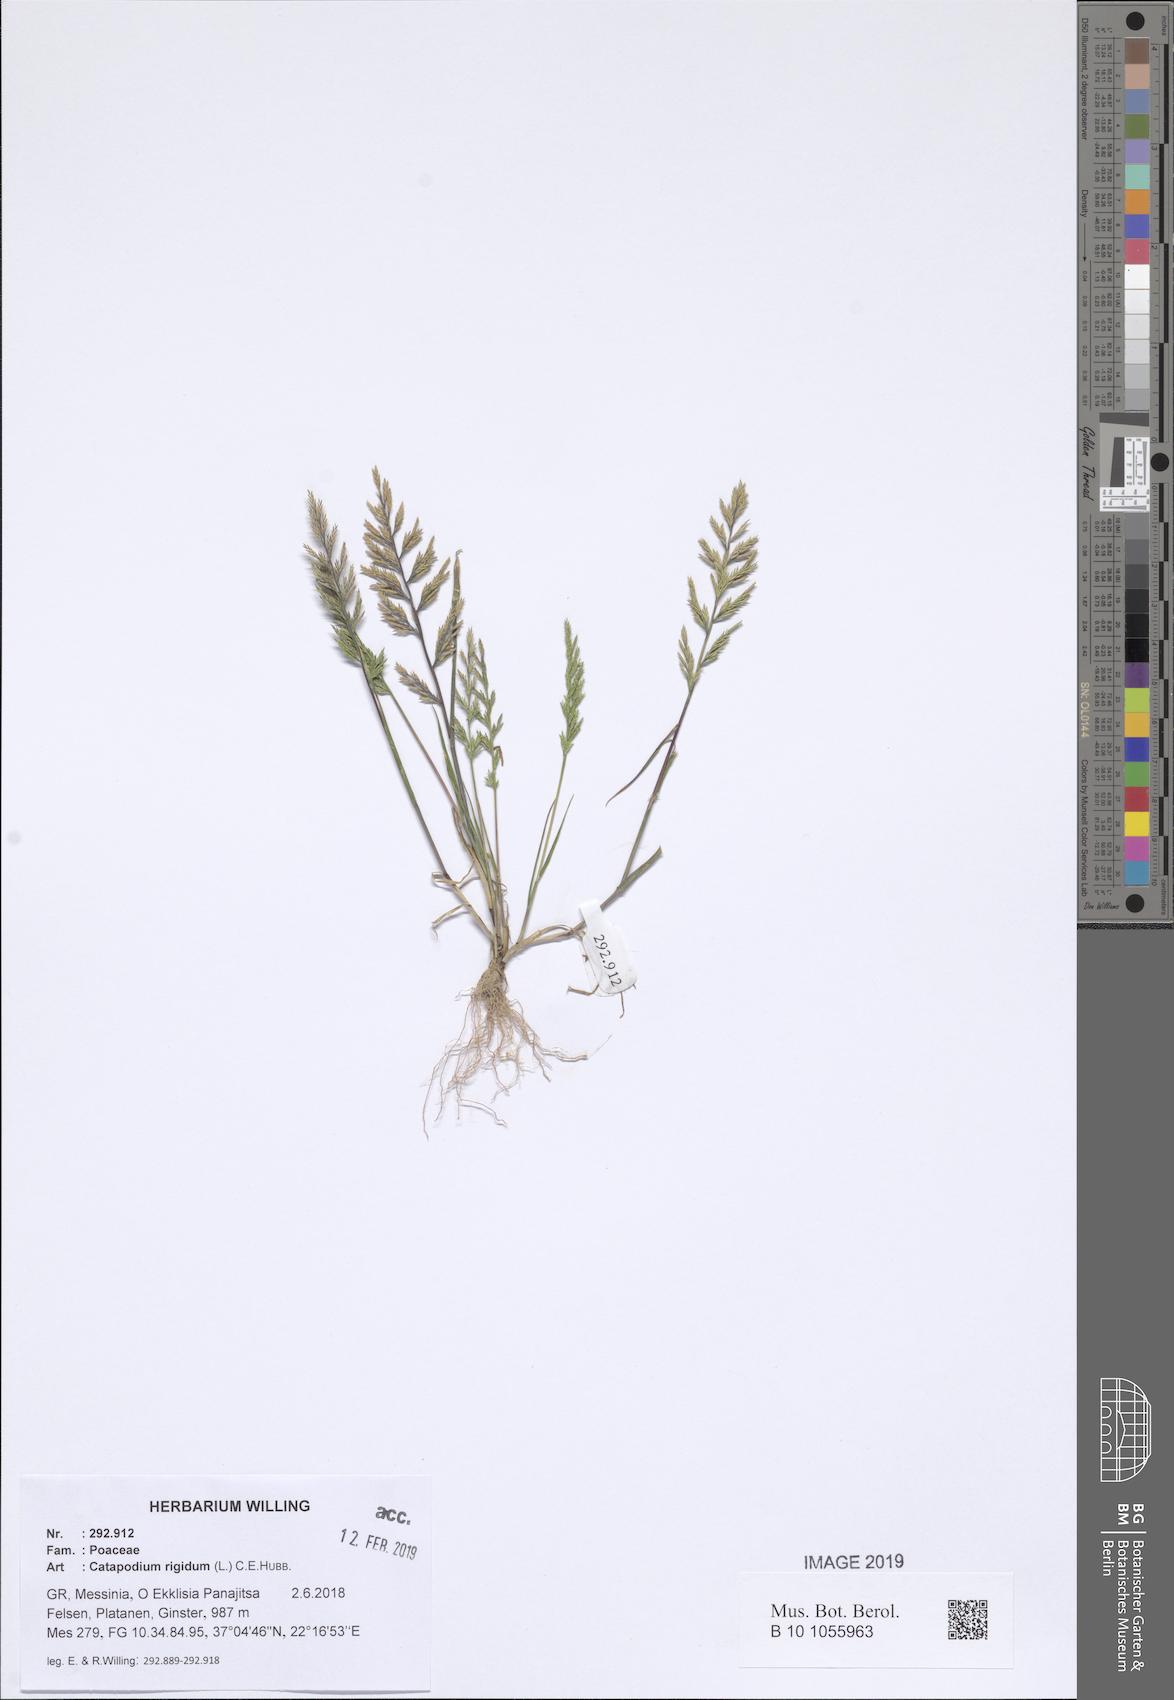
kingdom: Plantae
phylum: Tracheophyta
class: Liliopsida
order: Poales
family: Poaceae
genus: Catapodium
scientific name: Catapodium rigidum
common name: Fern-grass
